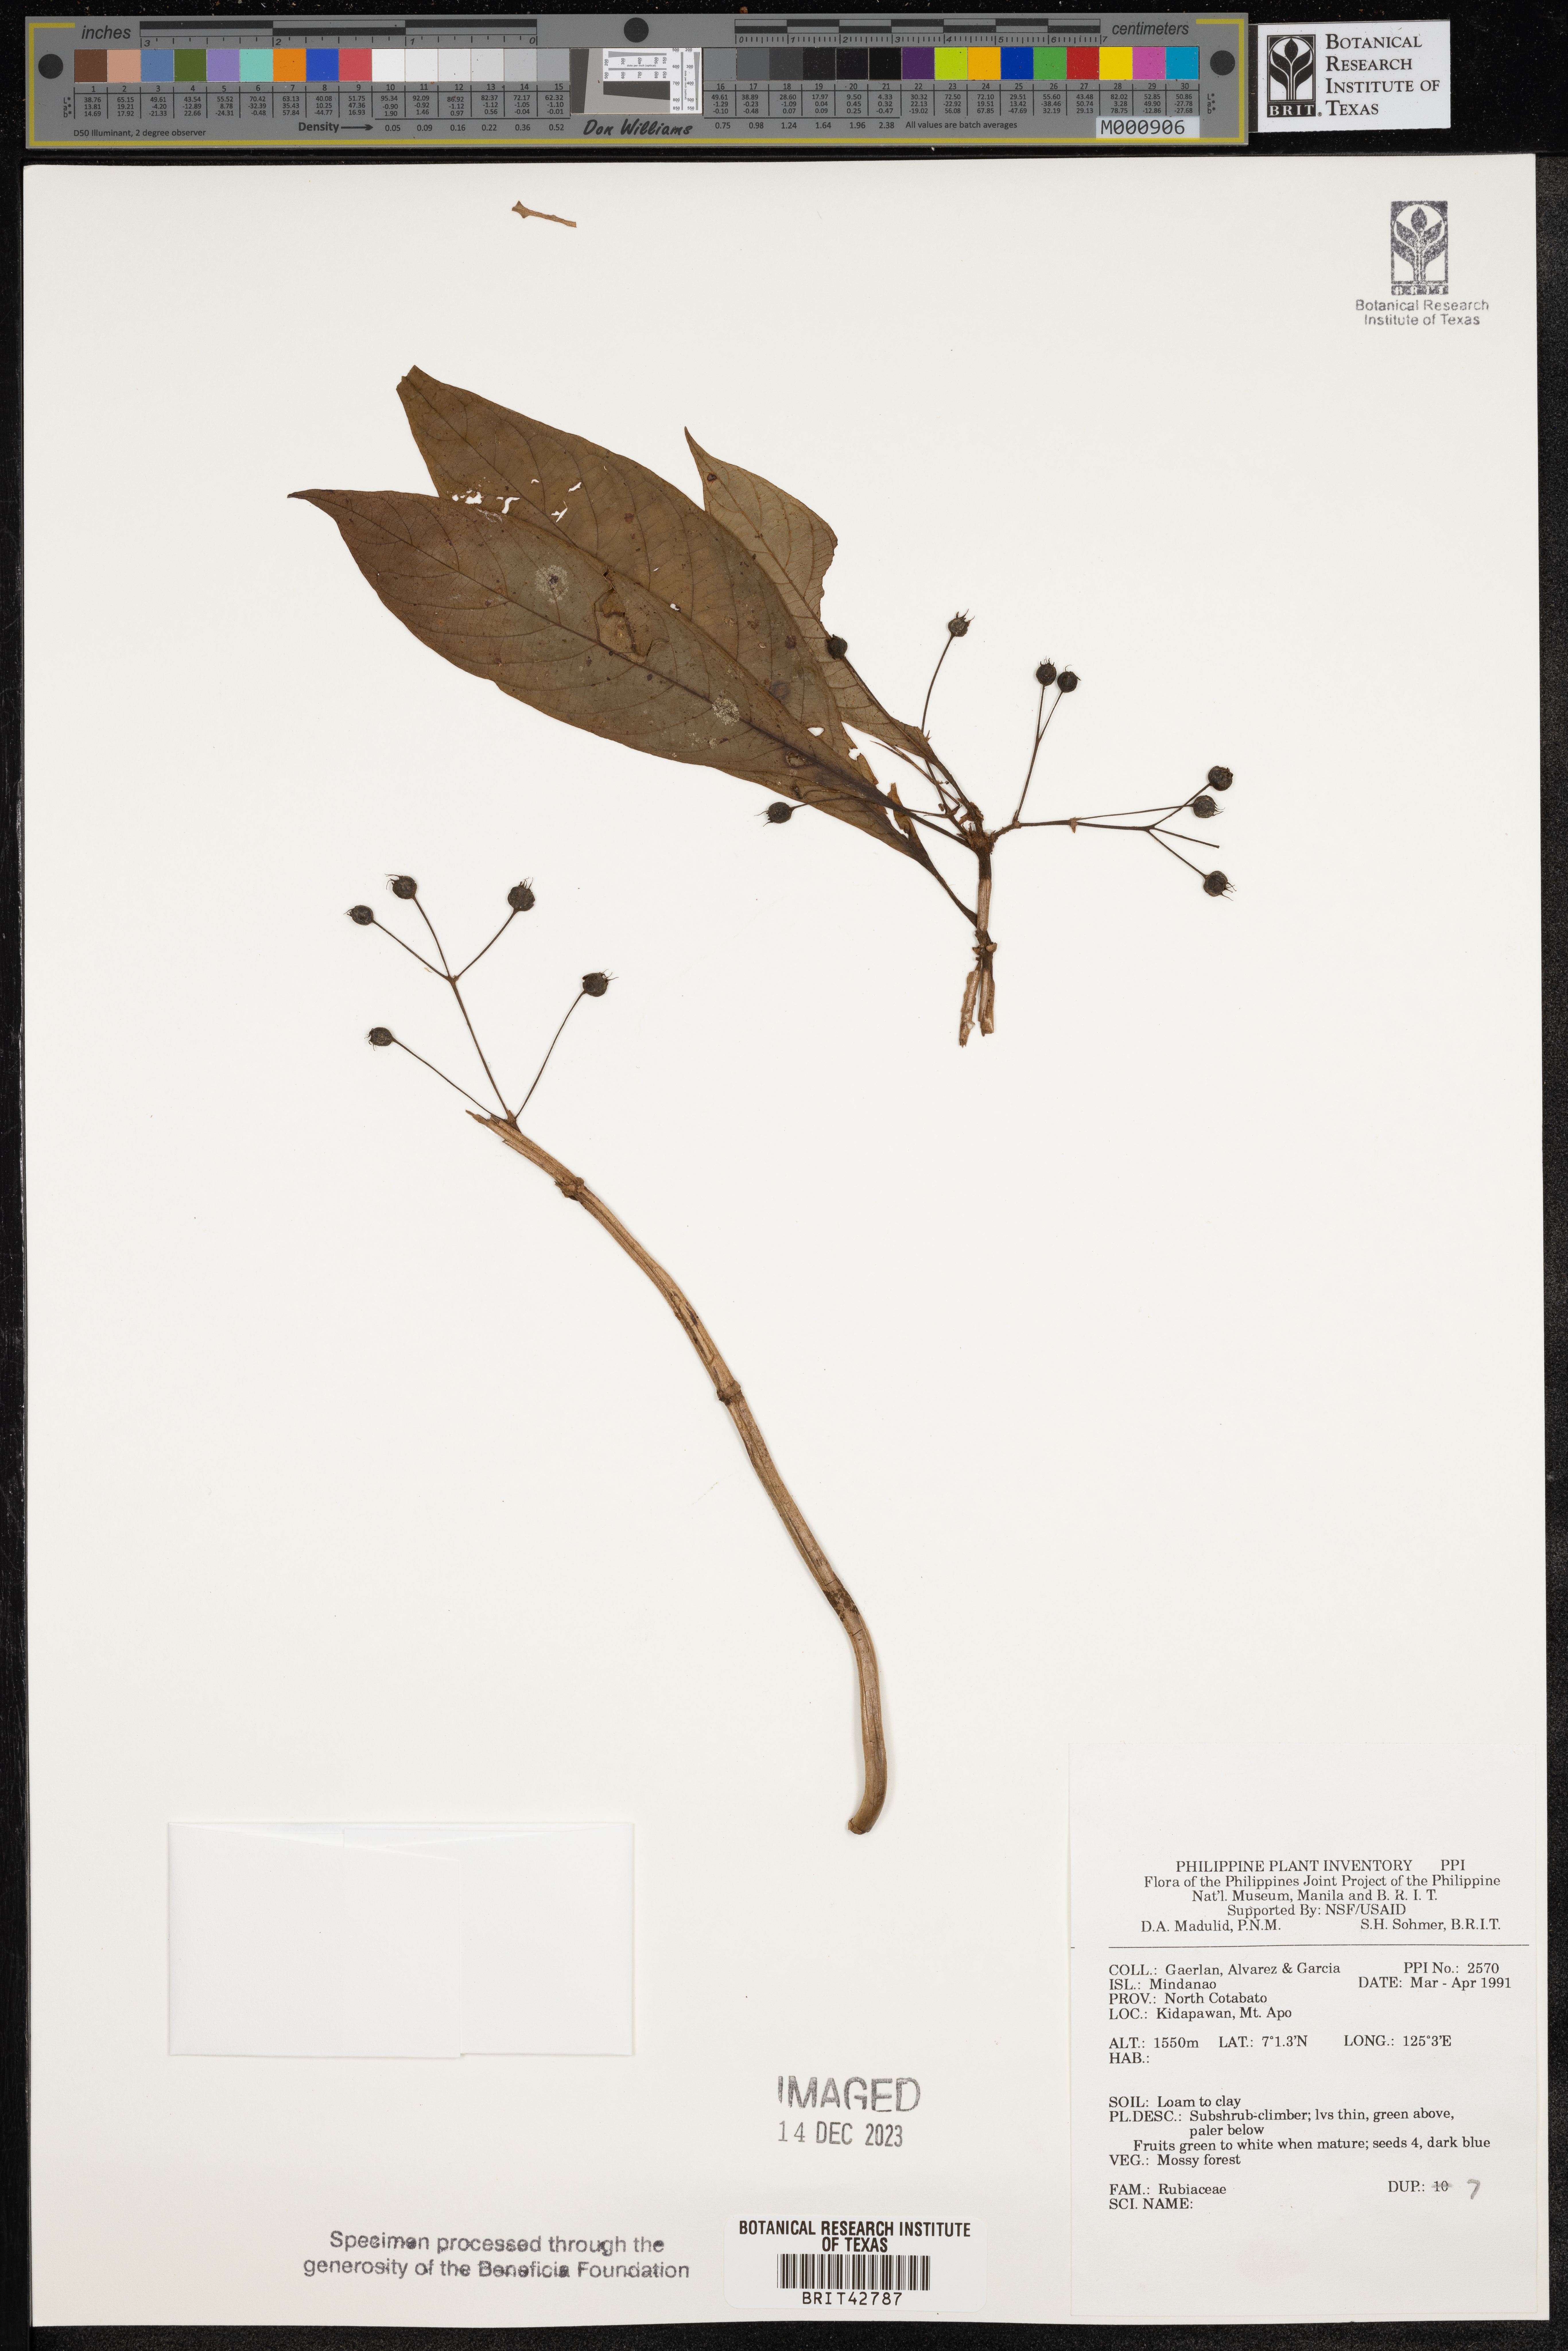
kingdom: Plantae
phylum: Tracheophyta
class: Magnoliopsida
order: Gentianales
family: Rubiaceae
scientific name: Rubiaceae
